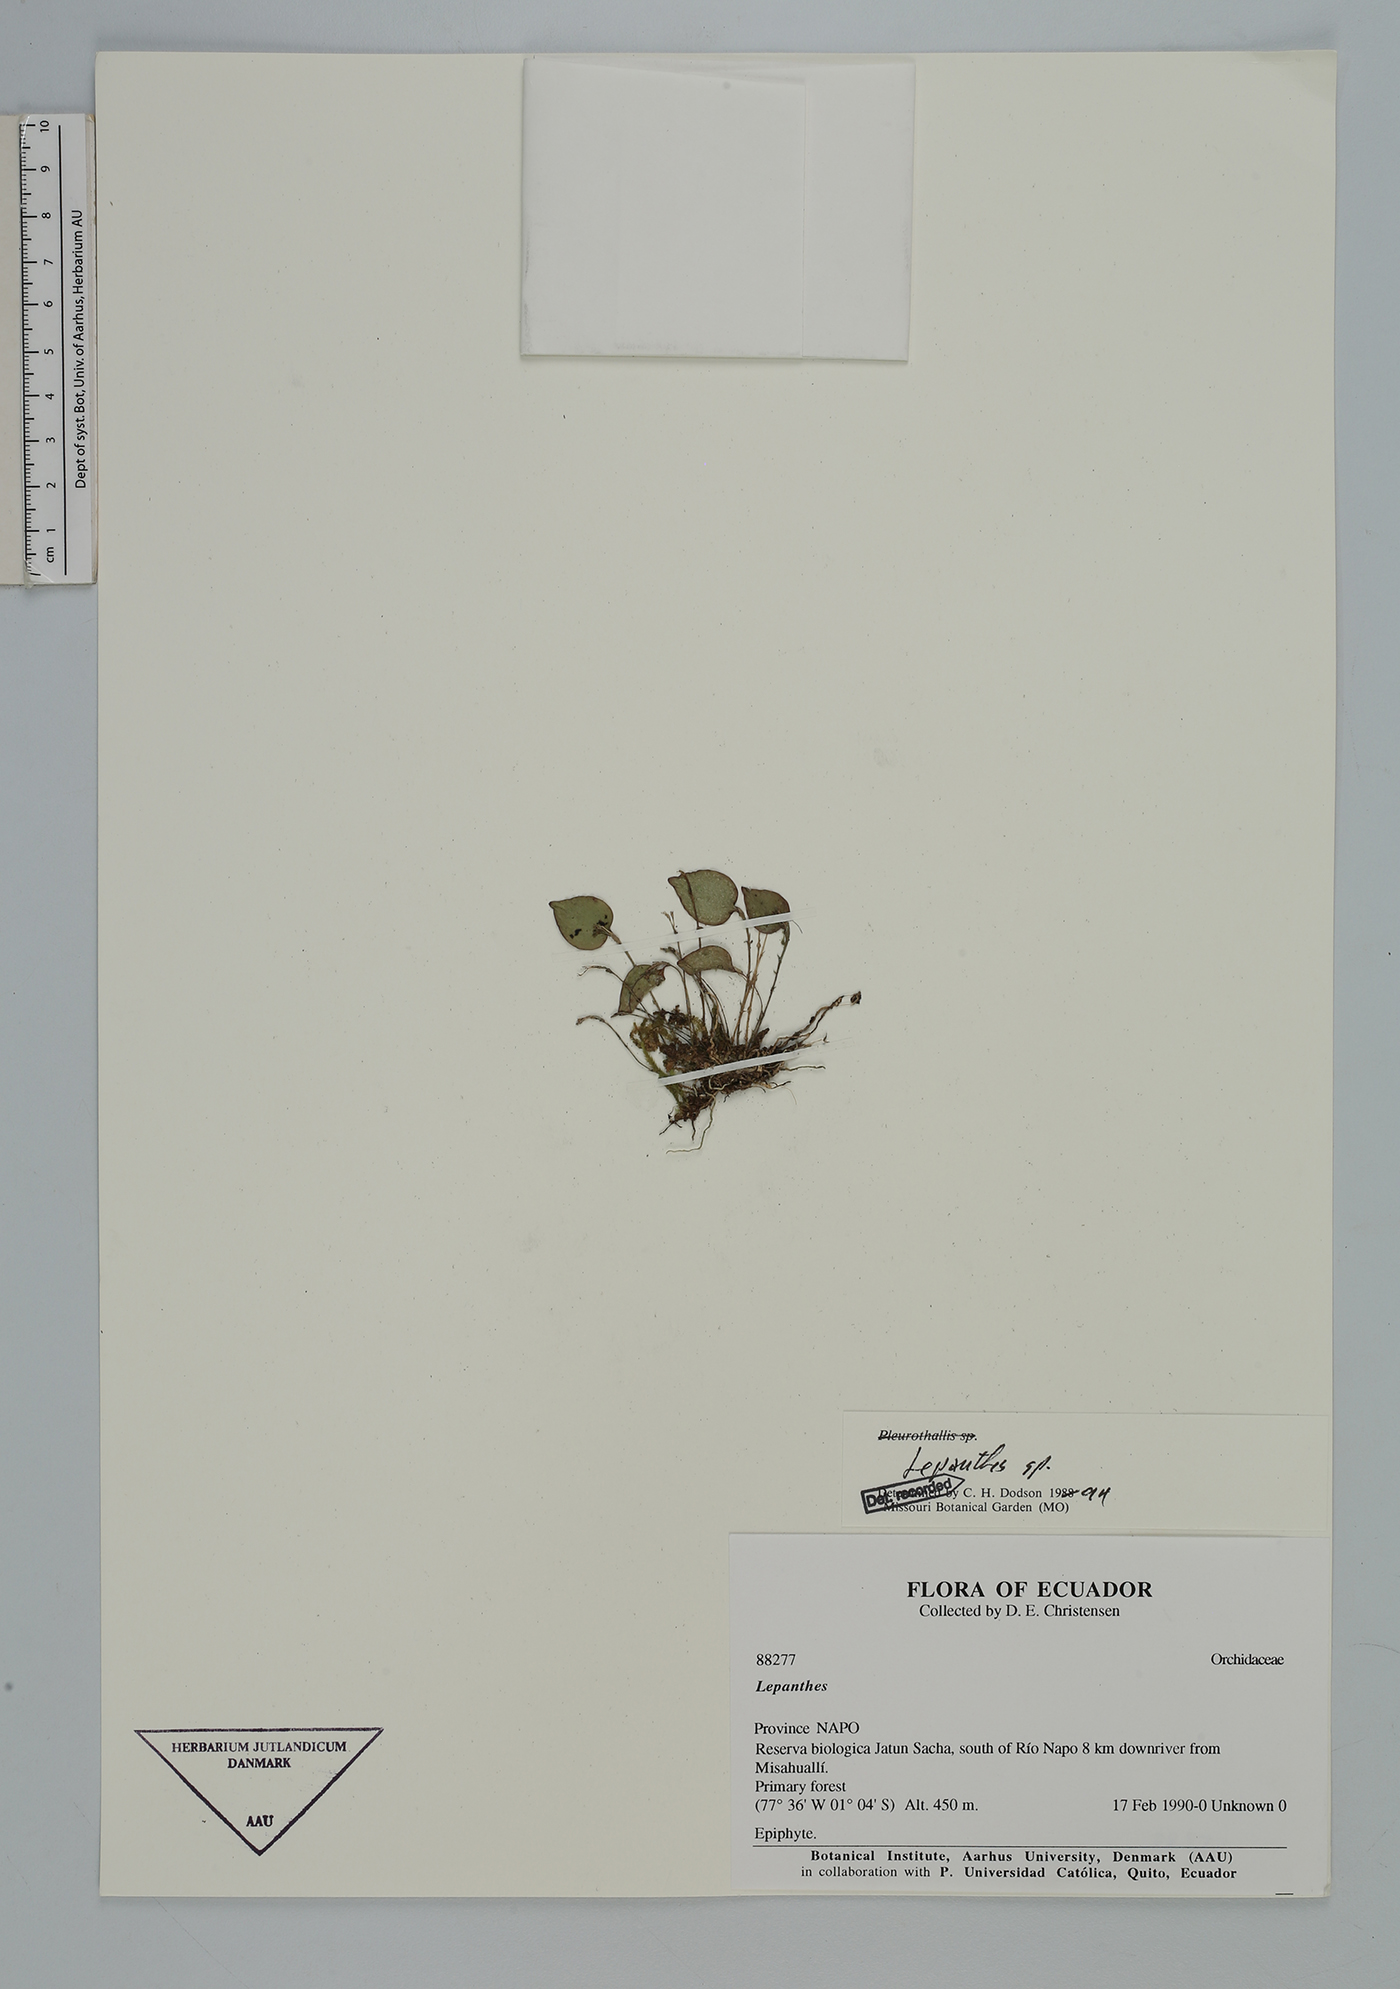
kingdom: Plantae
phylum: Tracheophyta
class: Liliopsida
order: Asparagales
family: Orchidaceae
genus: Lepanthes
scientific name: Lepanthes
